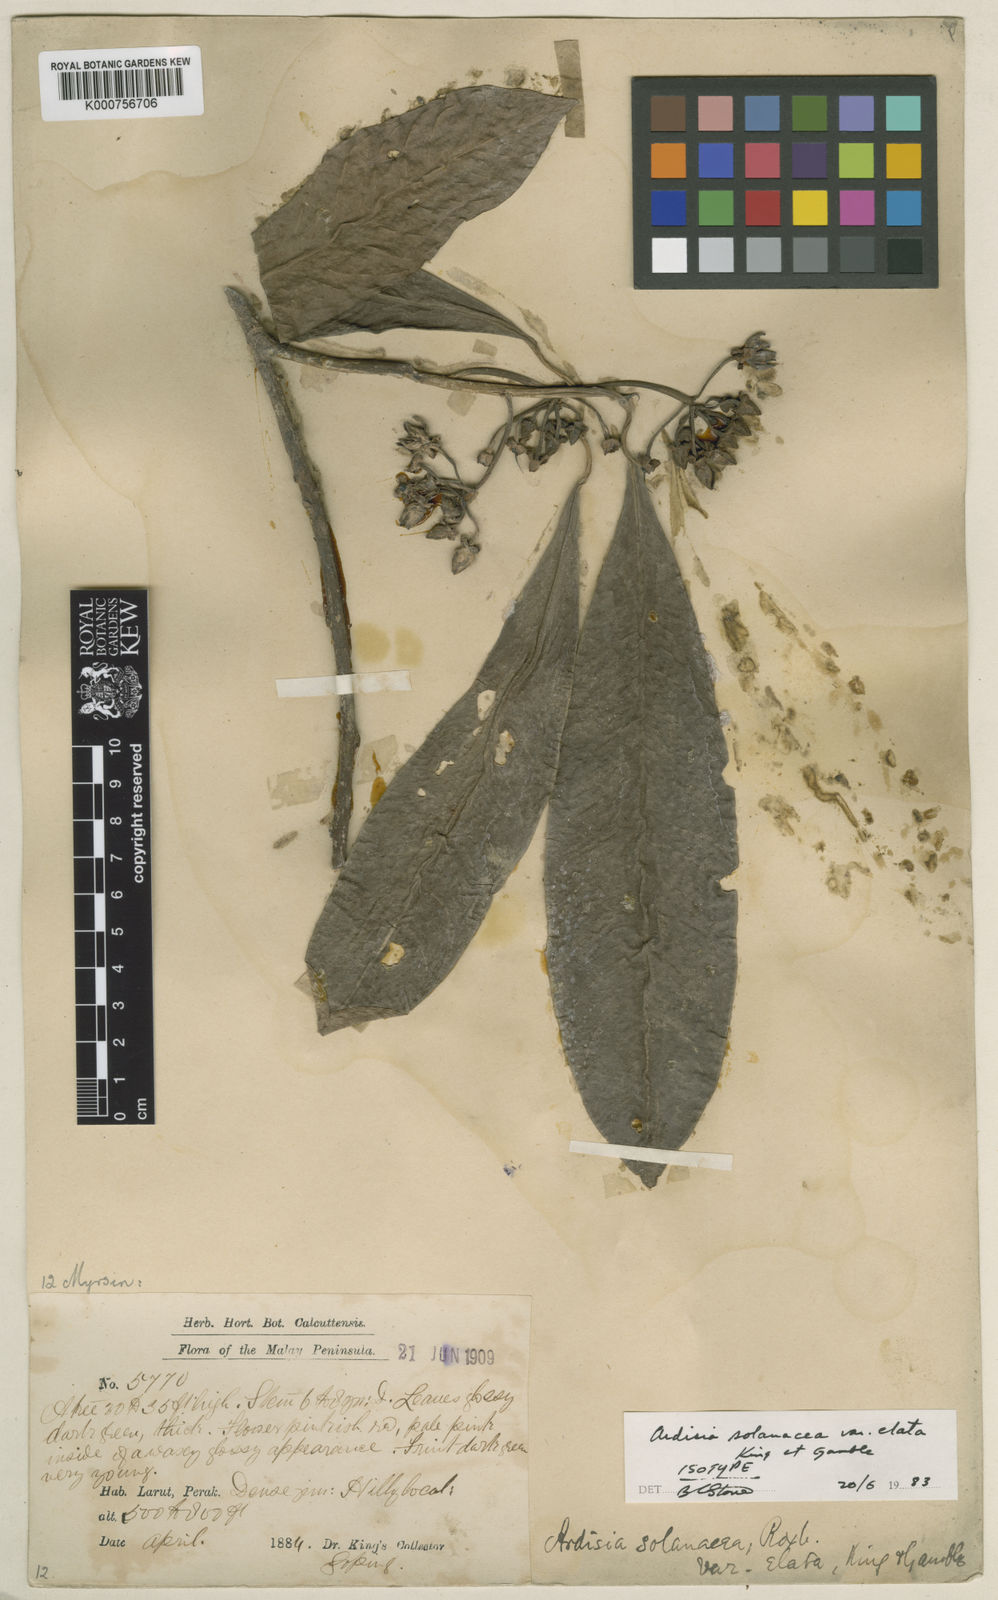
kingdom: Plantae
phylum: Tracheophyta
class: Magnoliopsida
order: Ericales
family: Primulaceae
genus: Ardisia
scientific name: Ardisia humilis
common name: Low shoebutton
